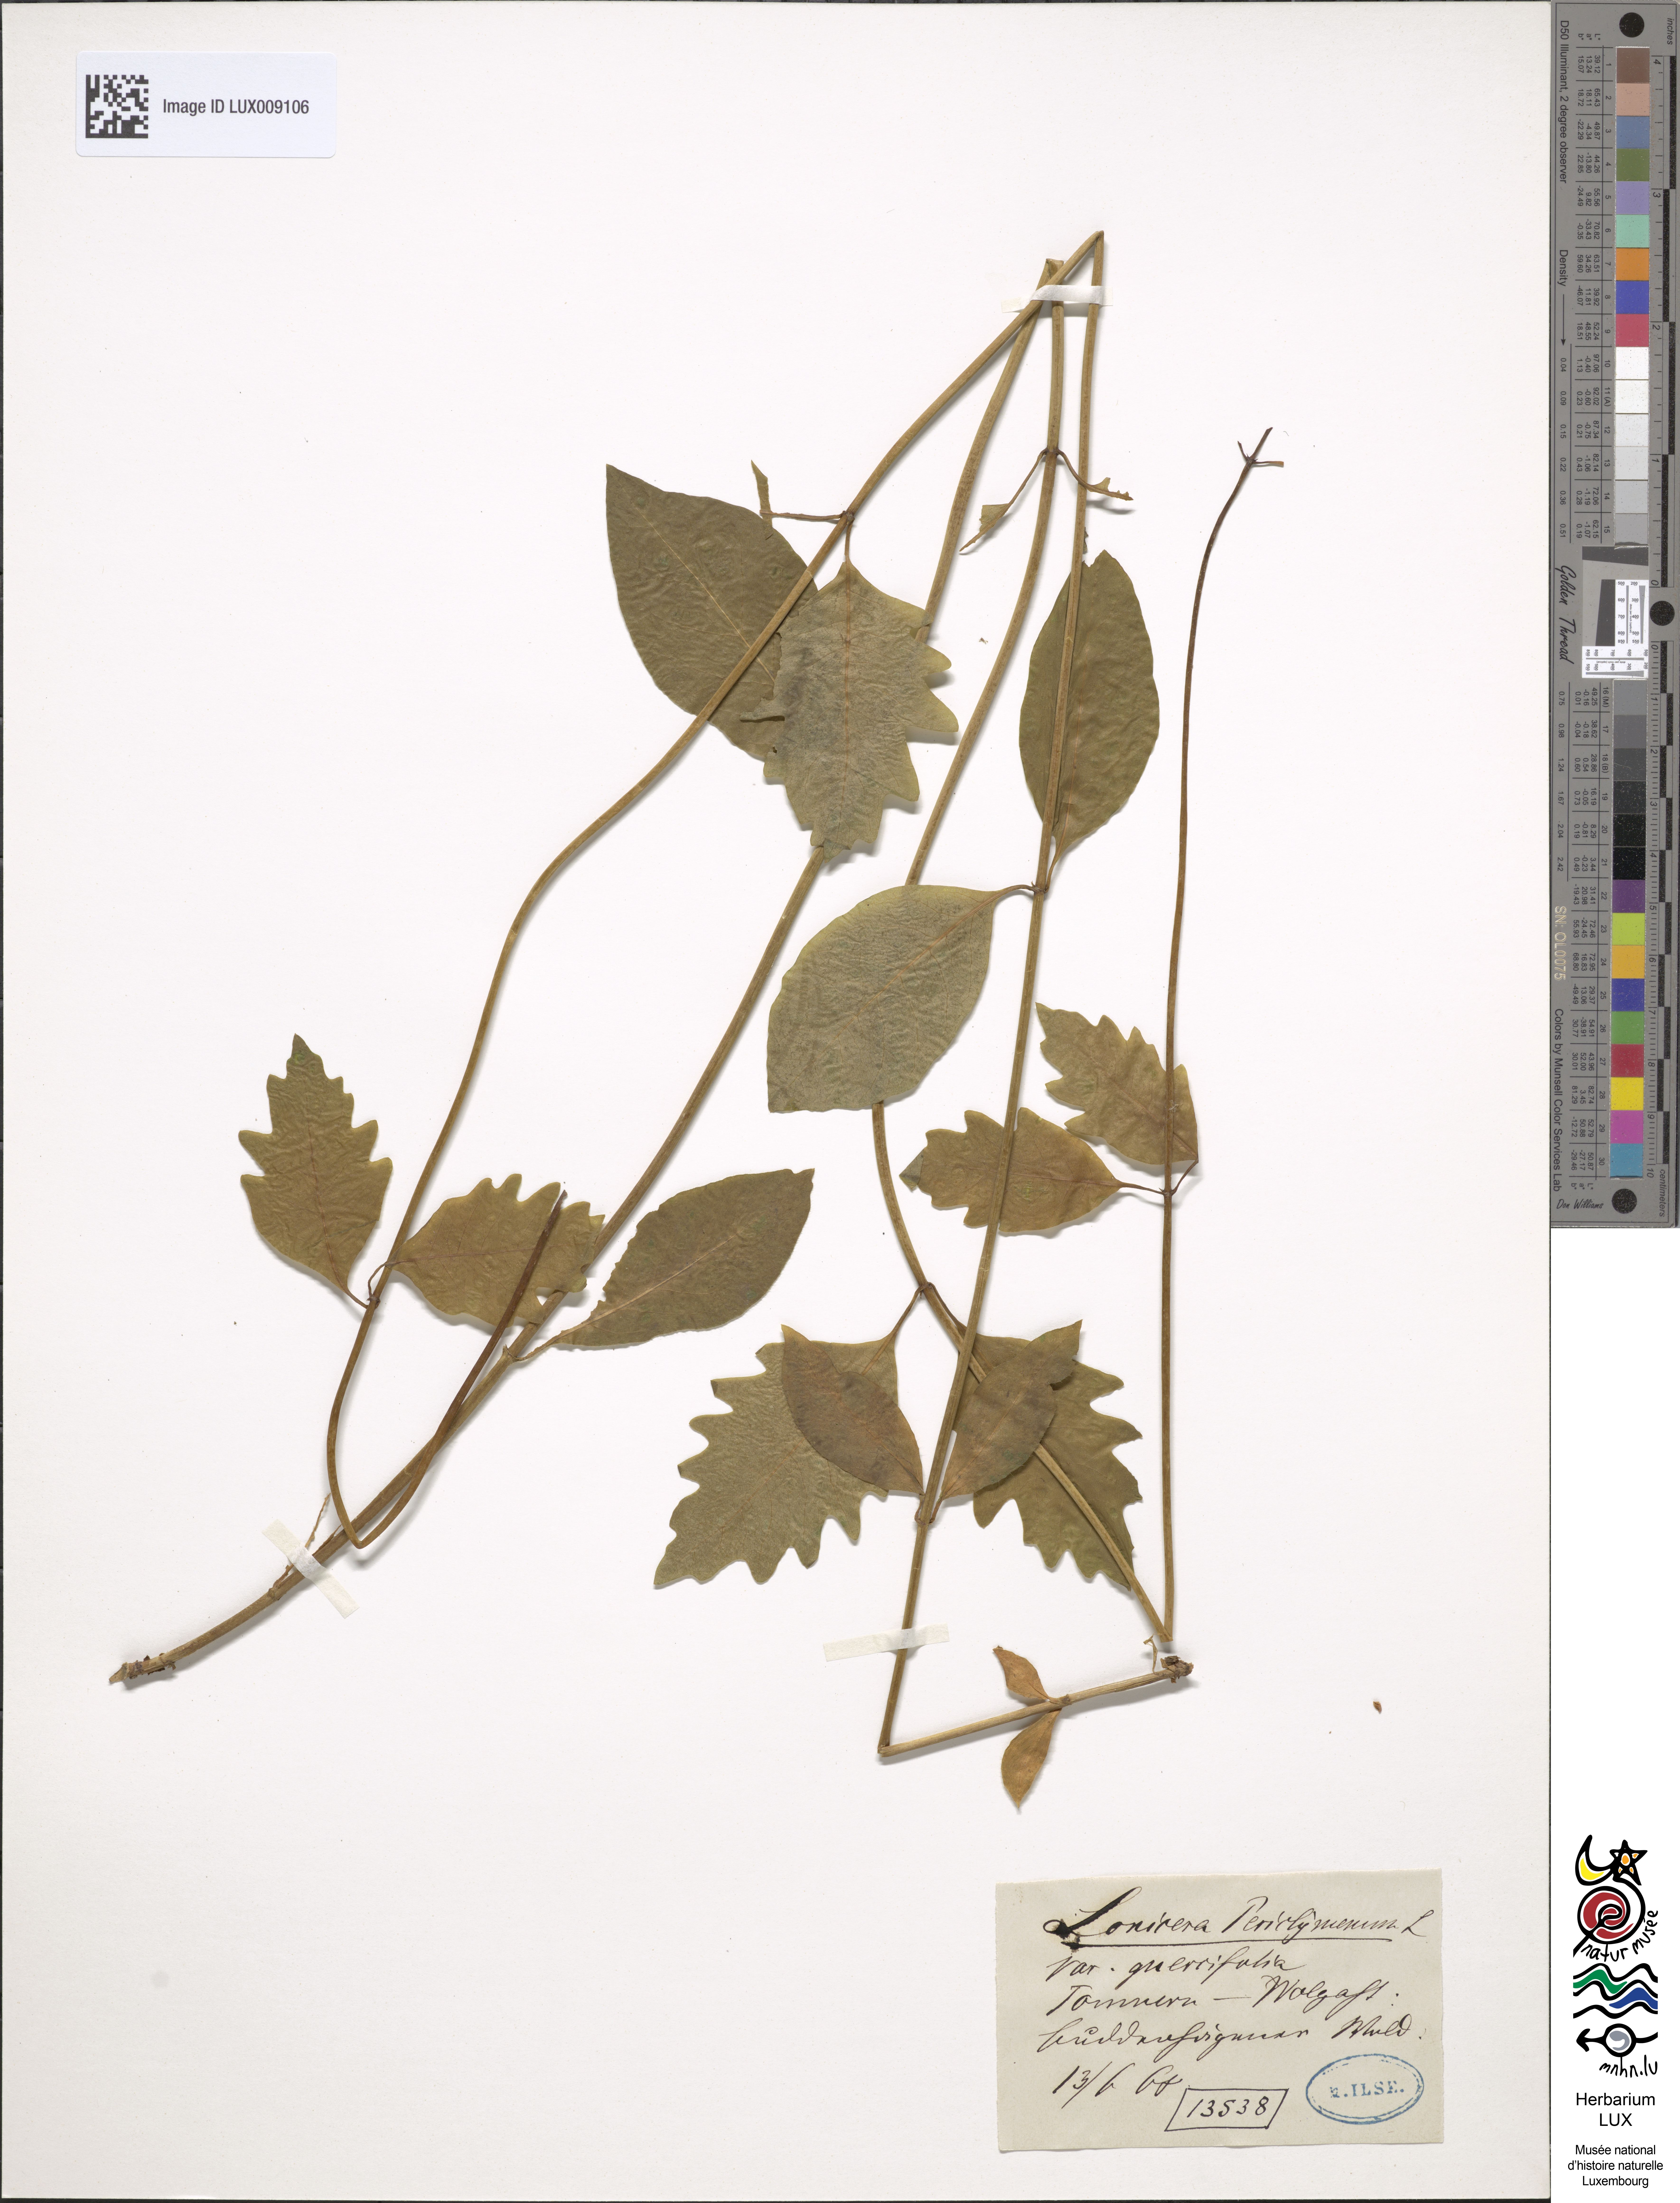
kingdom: Plantae
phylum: Tracheophyta
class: Magnoliopsida
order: Dipsacales
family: Caprifoliaceae
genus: Lonicera
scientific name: Lonicera periclymenum
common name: European honeysuckle
